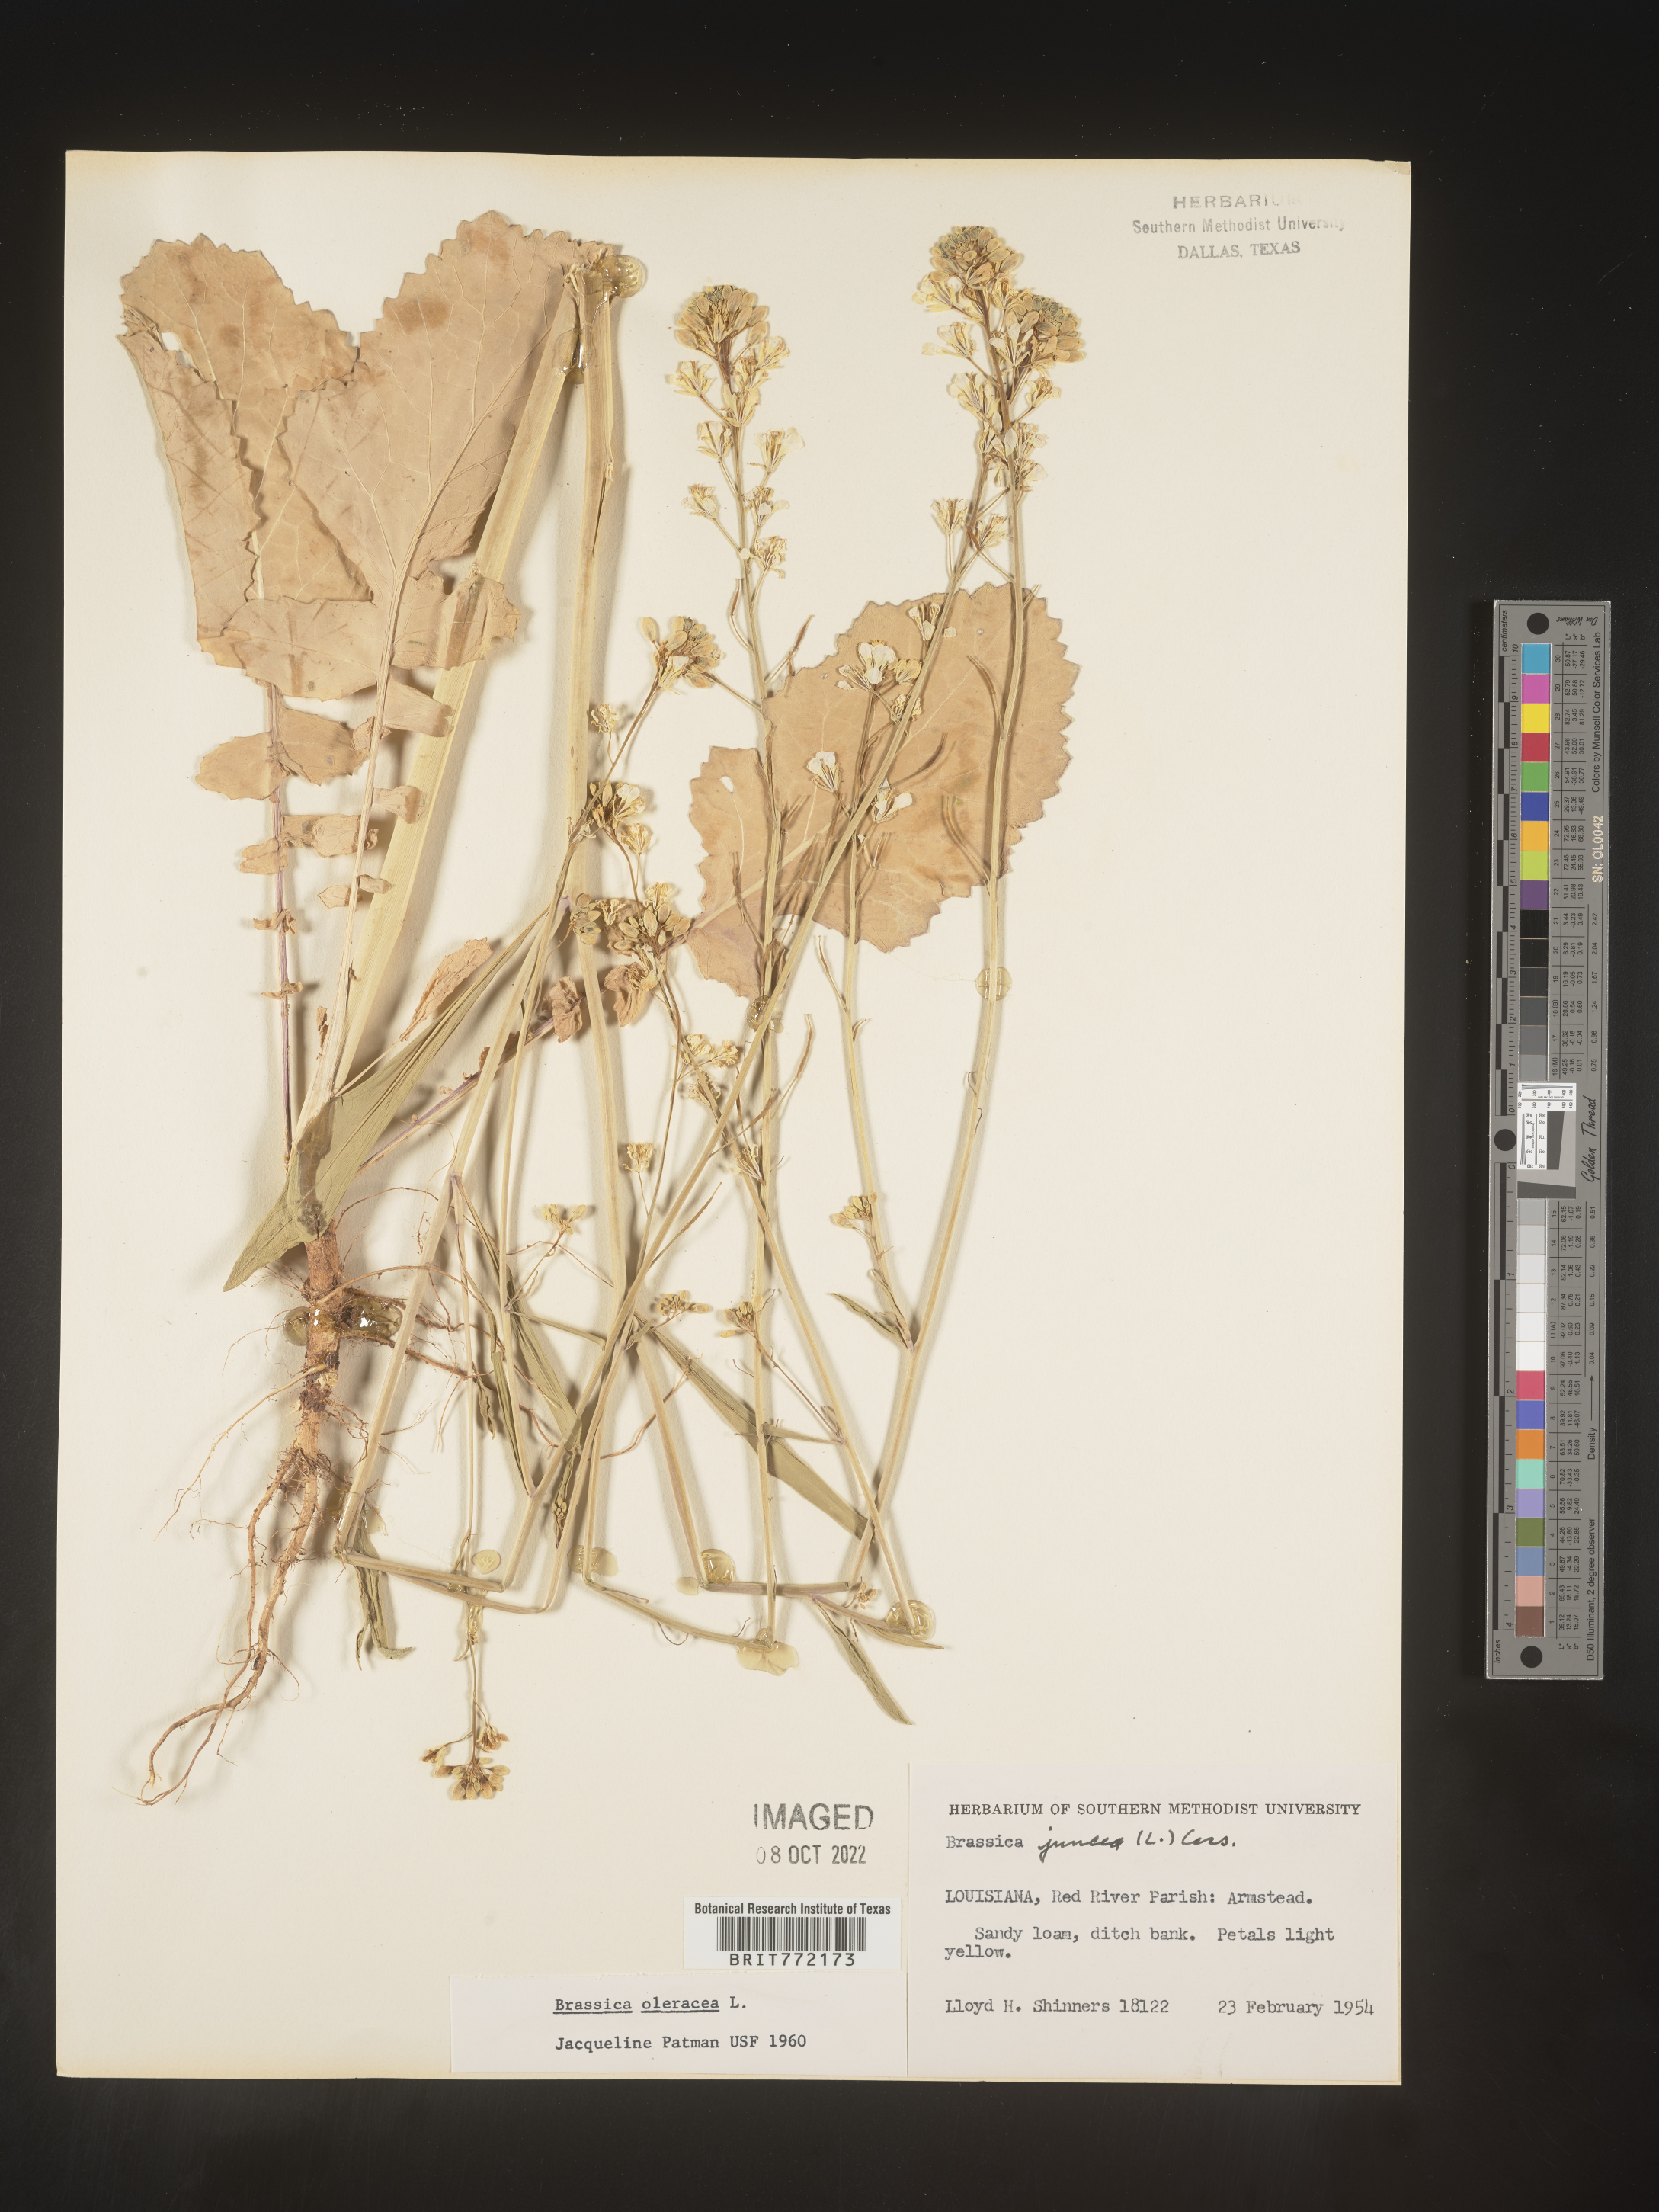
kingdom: Plantae
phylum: Tracheophyta
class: Magnoliopsida
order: Brassicales
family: Brassicaceae
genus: Brassica
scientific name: Brassica oleracea
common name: Cabbage
